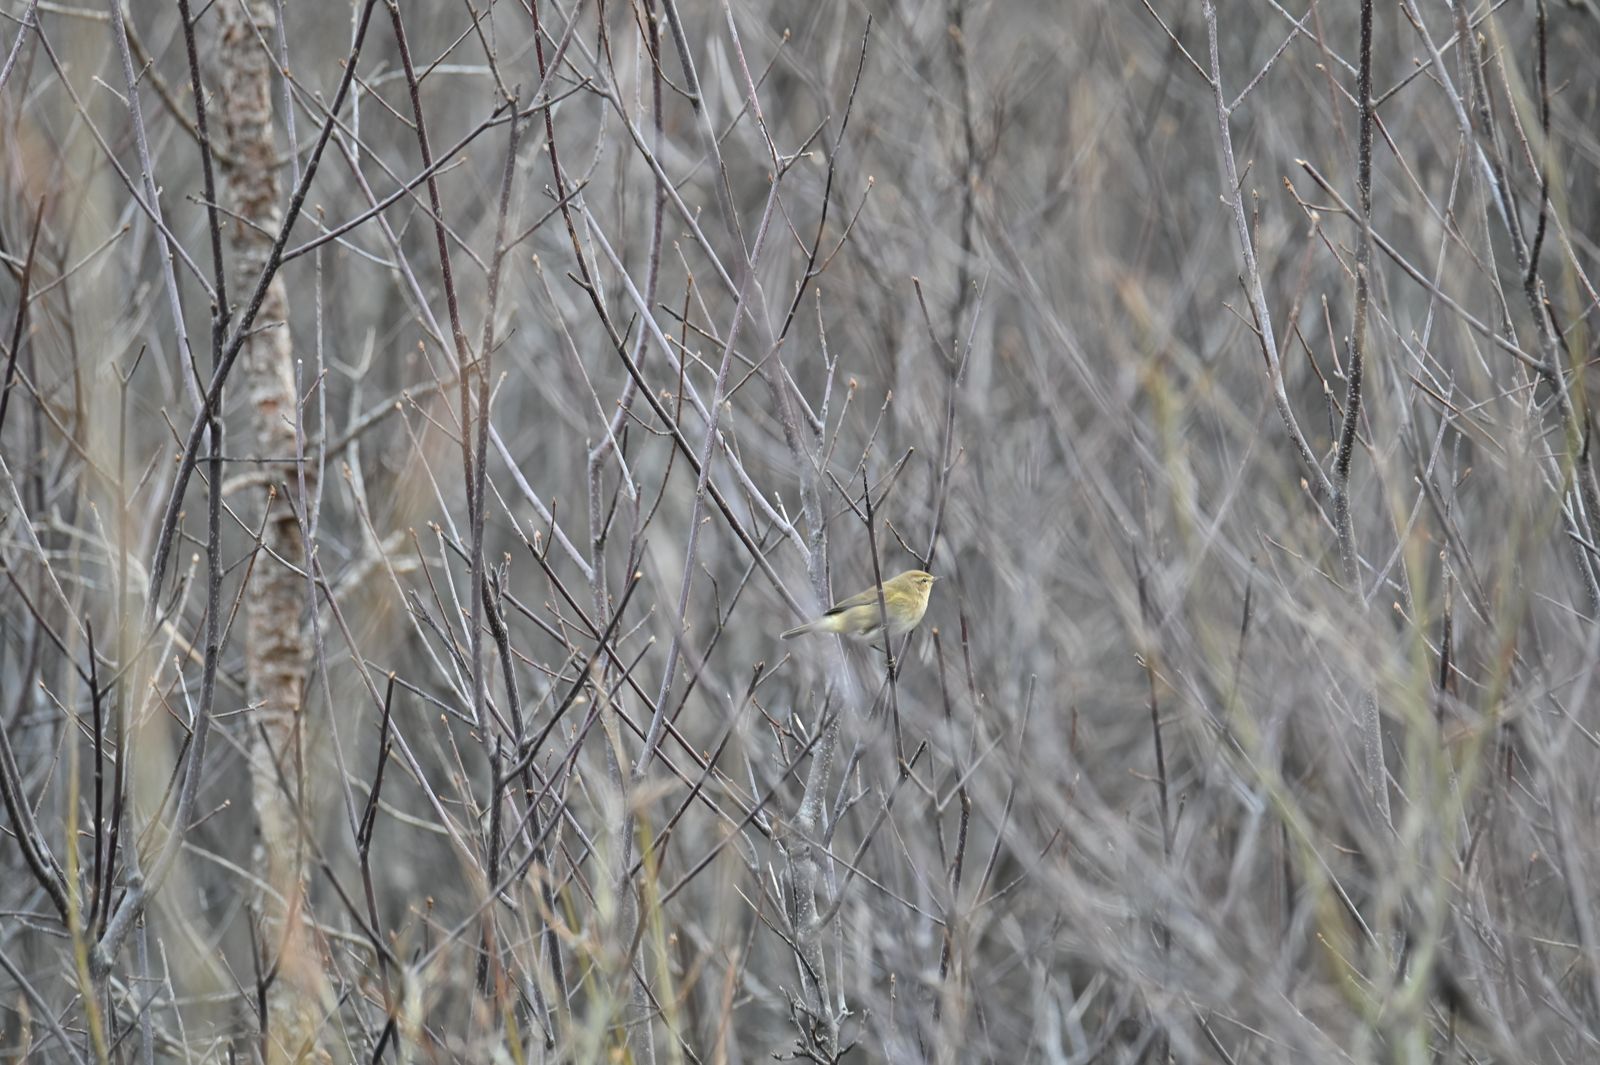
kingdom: Animalia
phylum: Chordata
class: Aves
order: Passeriformes
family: Phylloscopidae
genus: Phylloscopus
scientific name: Phylloscopus collybita
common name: Common chiffchaff
